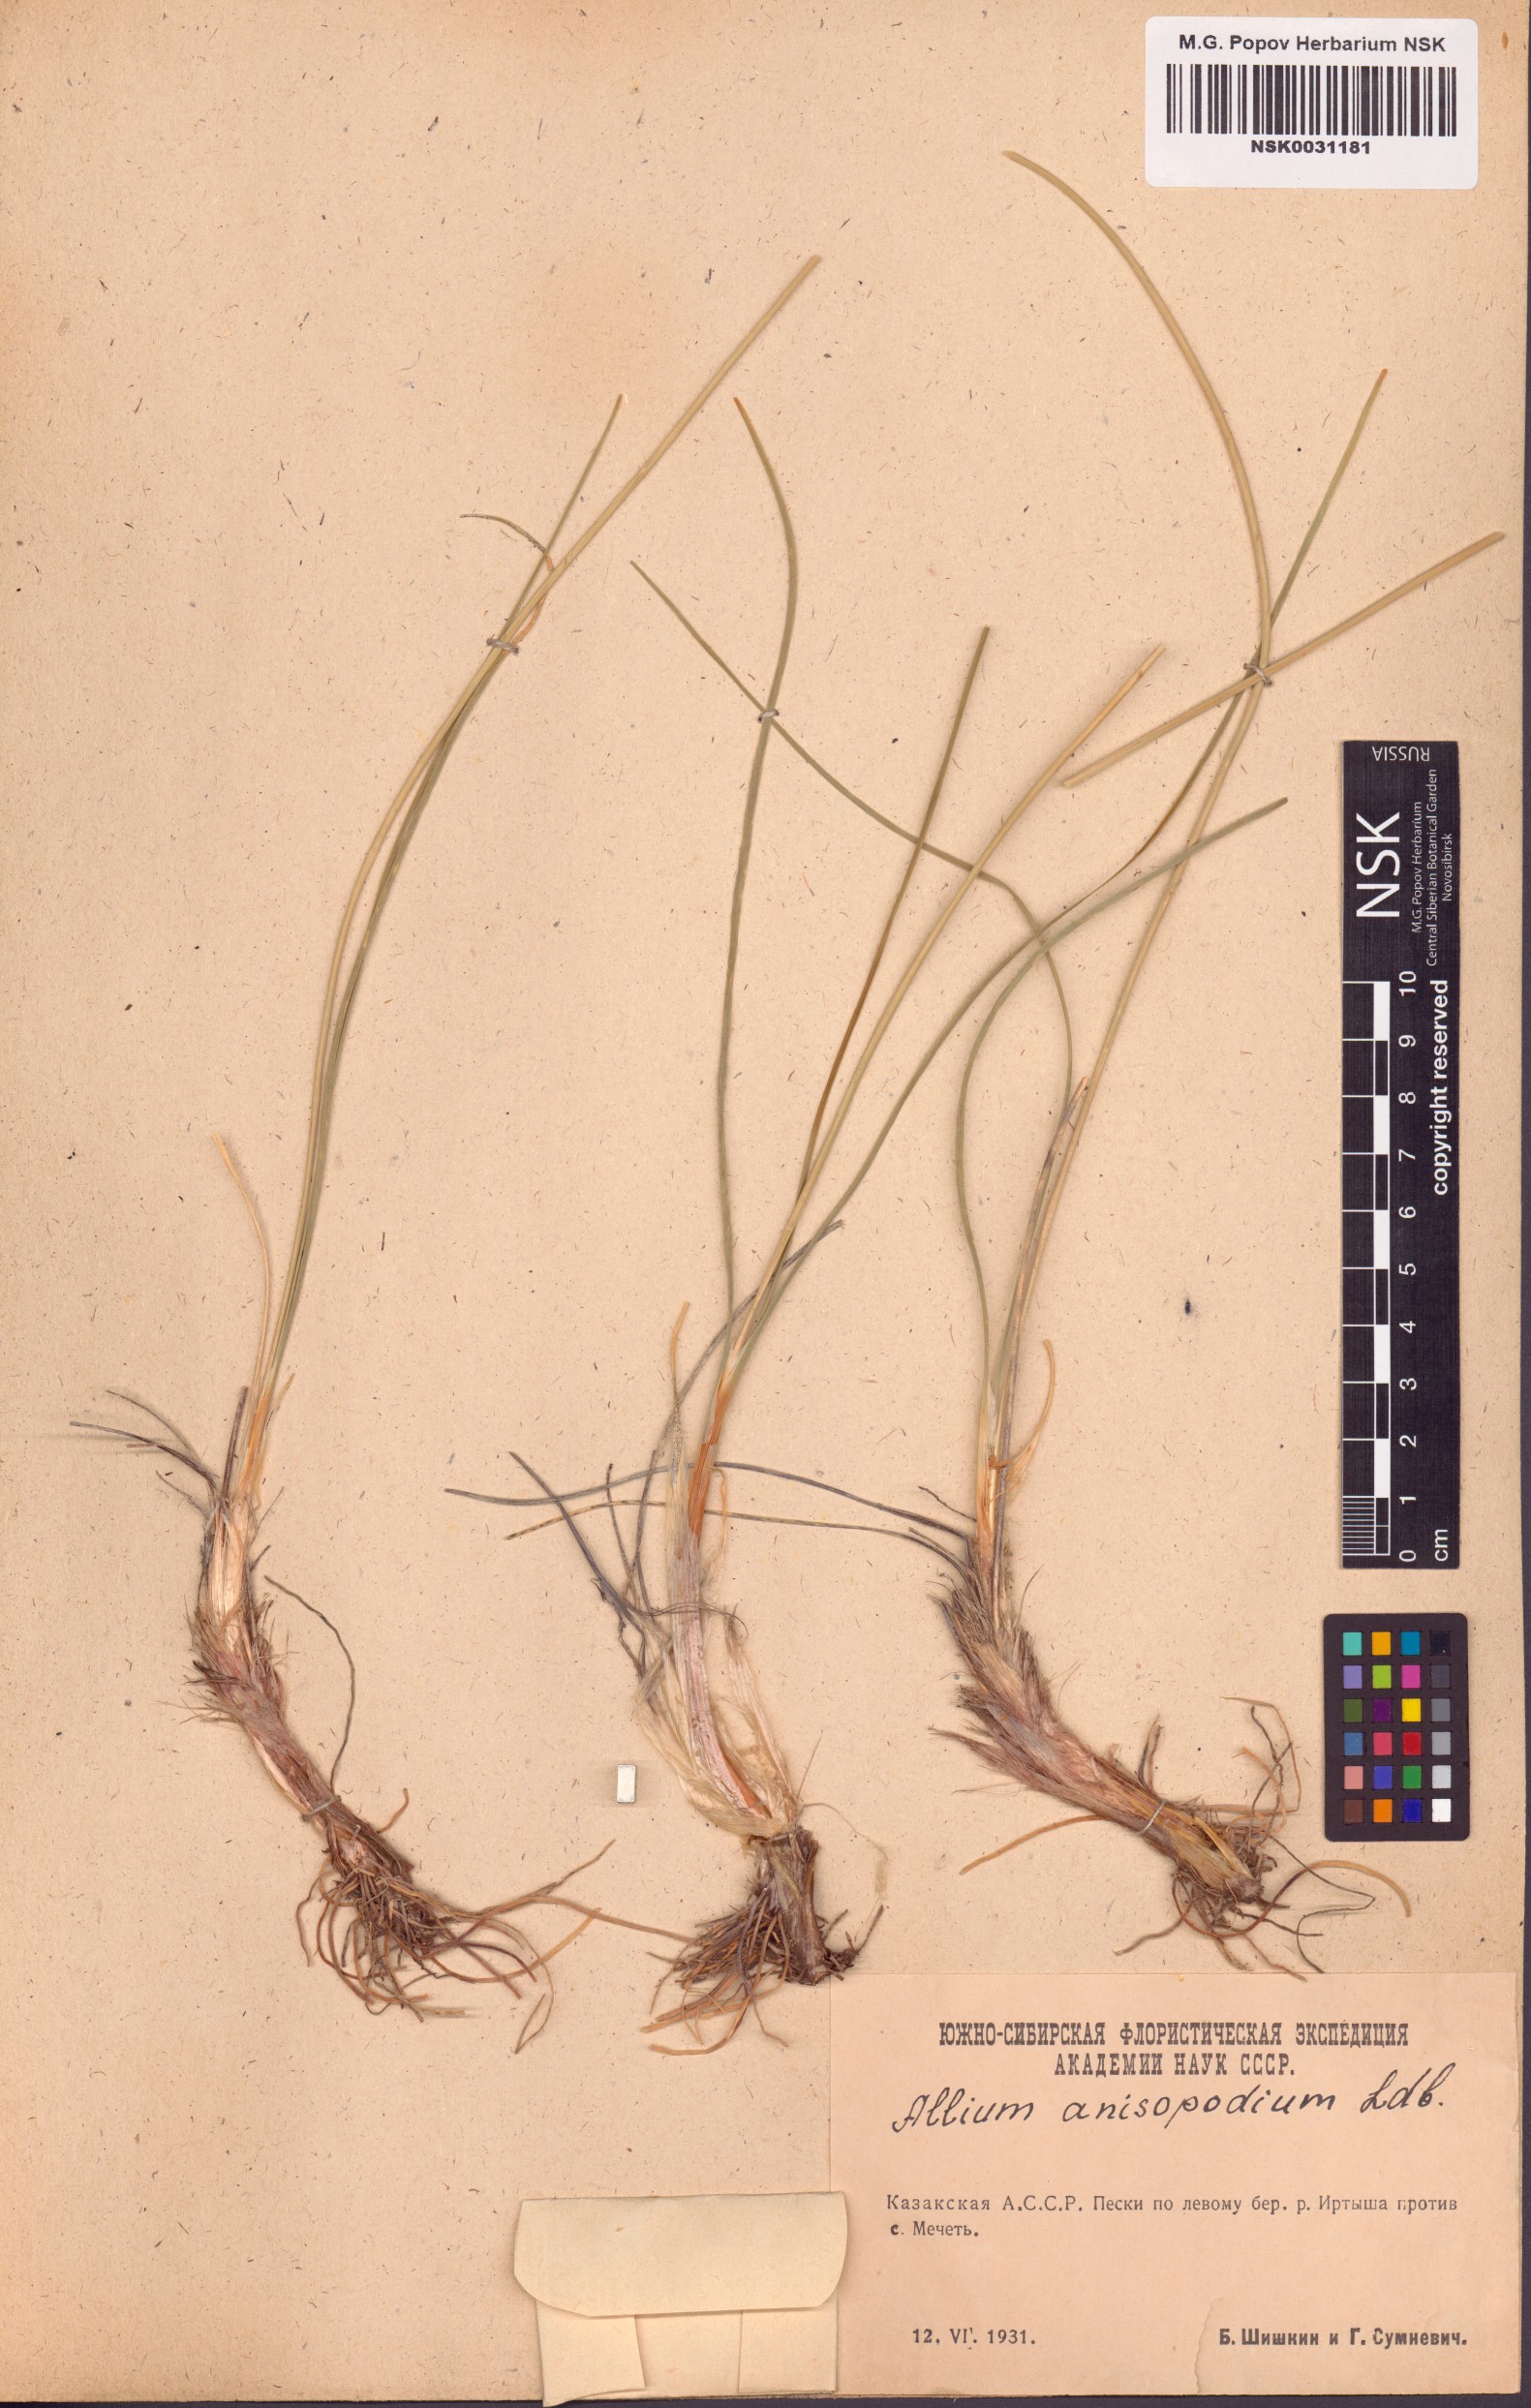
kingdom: Plantae
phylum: Tracheophyta
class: Liliopsida
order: Asparagales
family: Amaryllidaceae
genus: Allium
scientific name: Allium anisopodium
